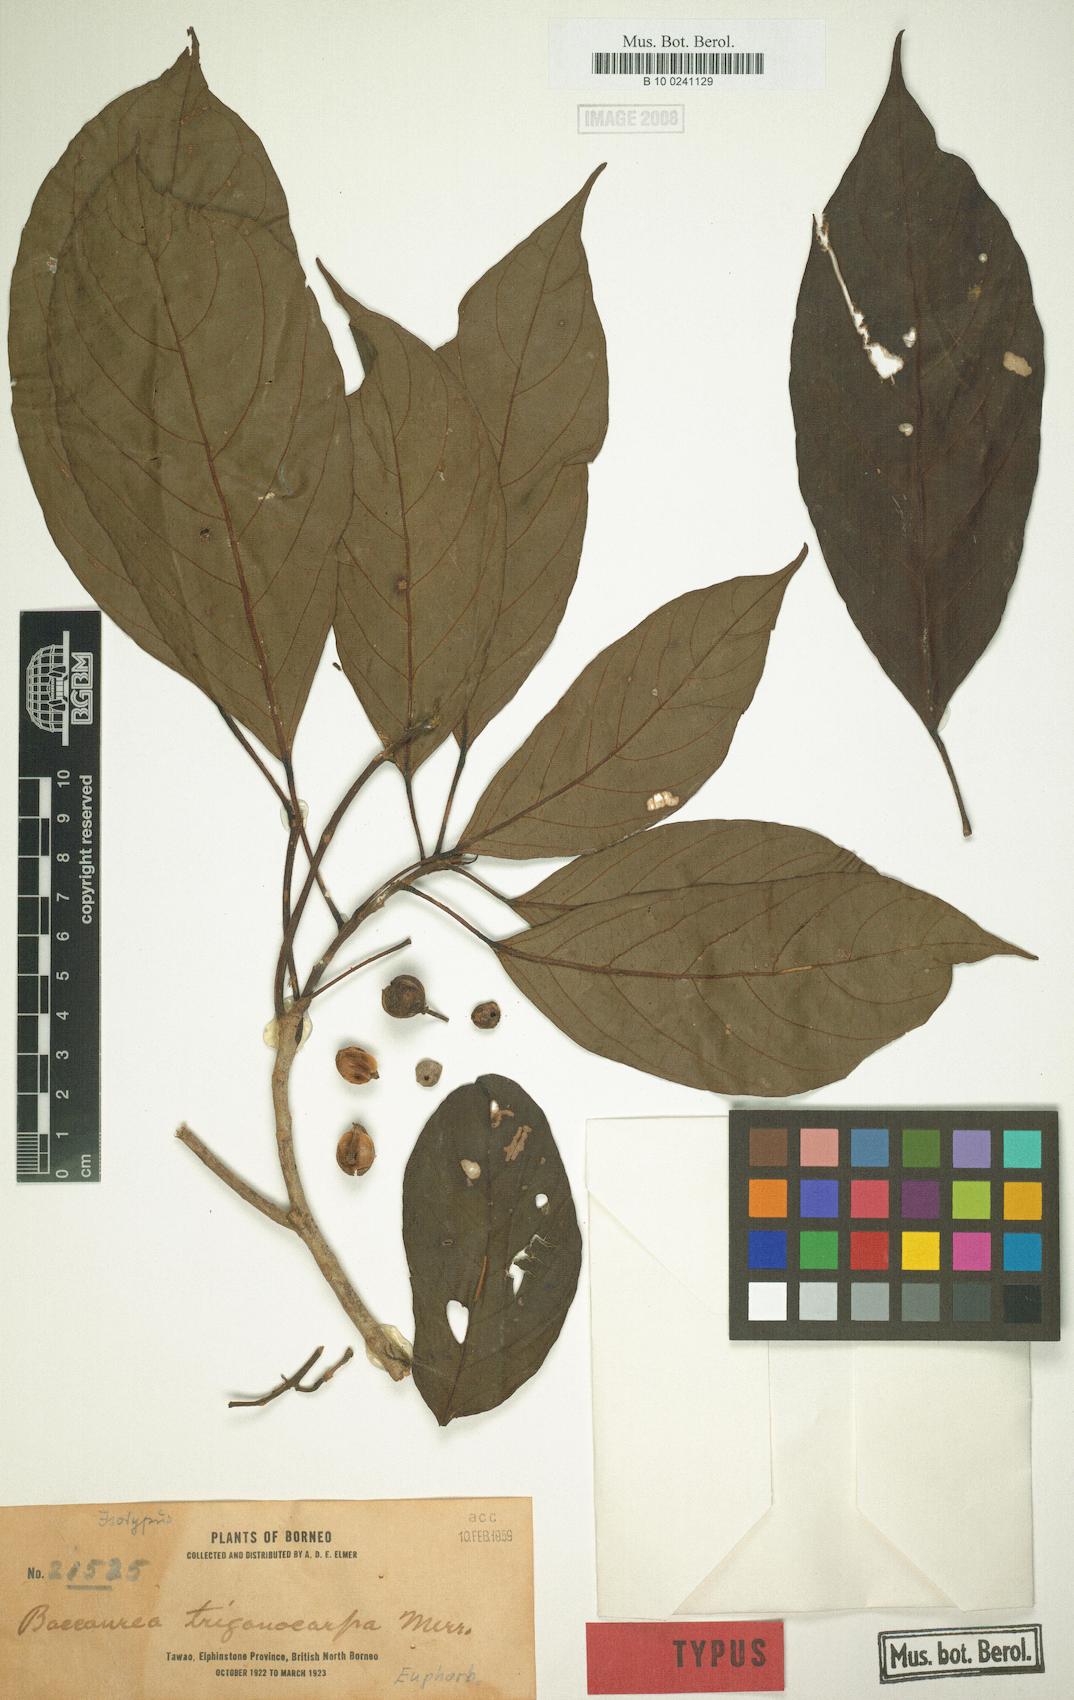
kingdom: Plantae
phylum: Tracheophyta
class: Magnoliopsida
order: Malpighiales
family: Phyllanthaceae
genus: Baccaurea
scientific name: Baccaurea trigonocarpa
